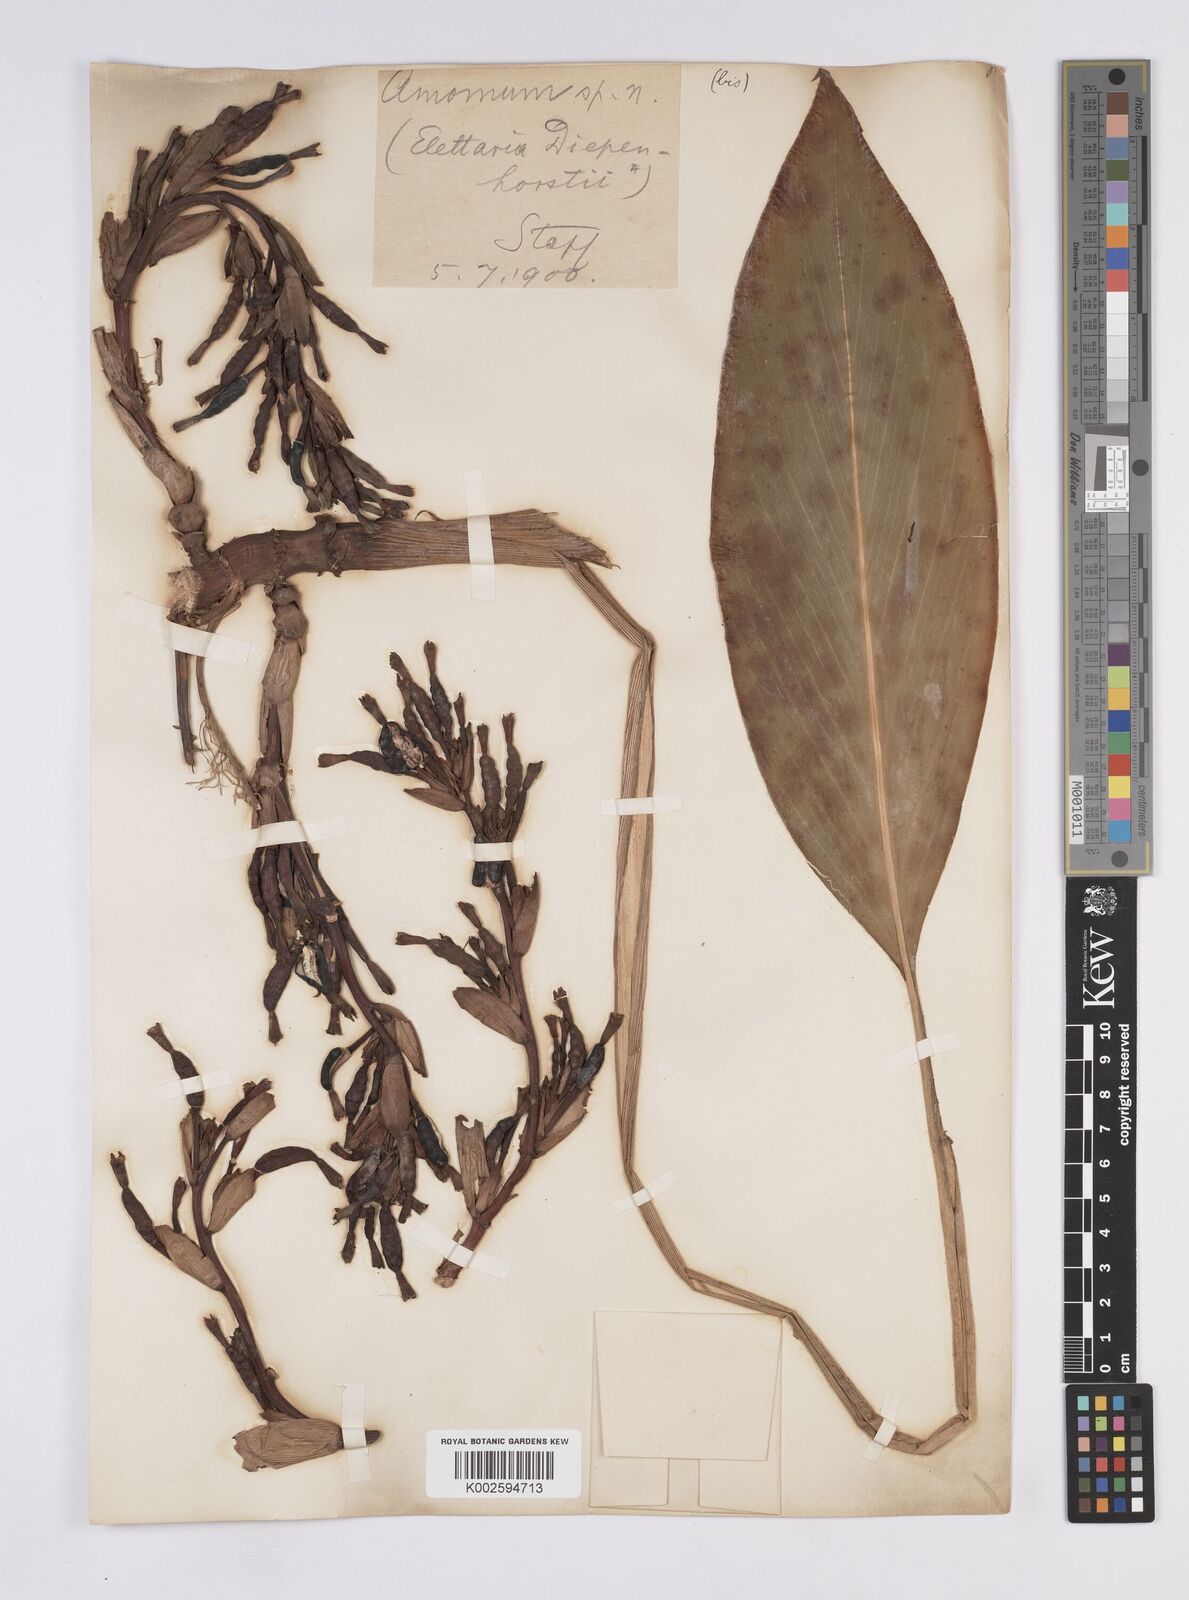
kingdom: Plantae
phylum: Tracheophyta
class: Liliopsida
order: Zingiberales
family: Zingiberaceae
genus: Elettaria
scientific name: Elettaria
